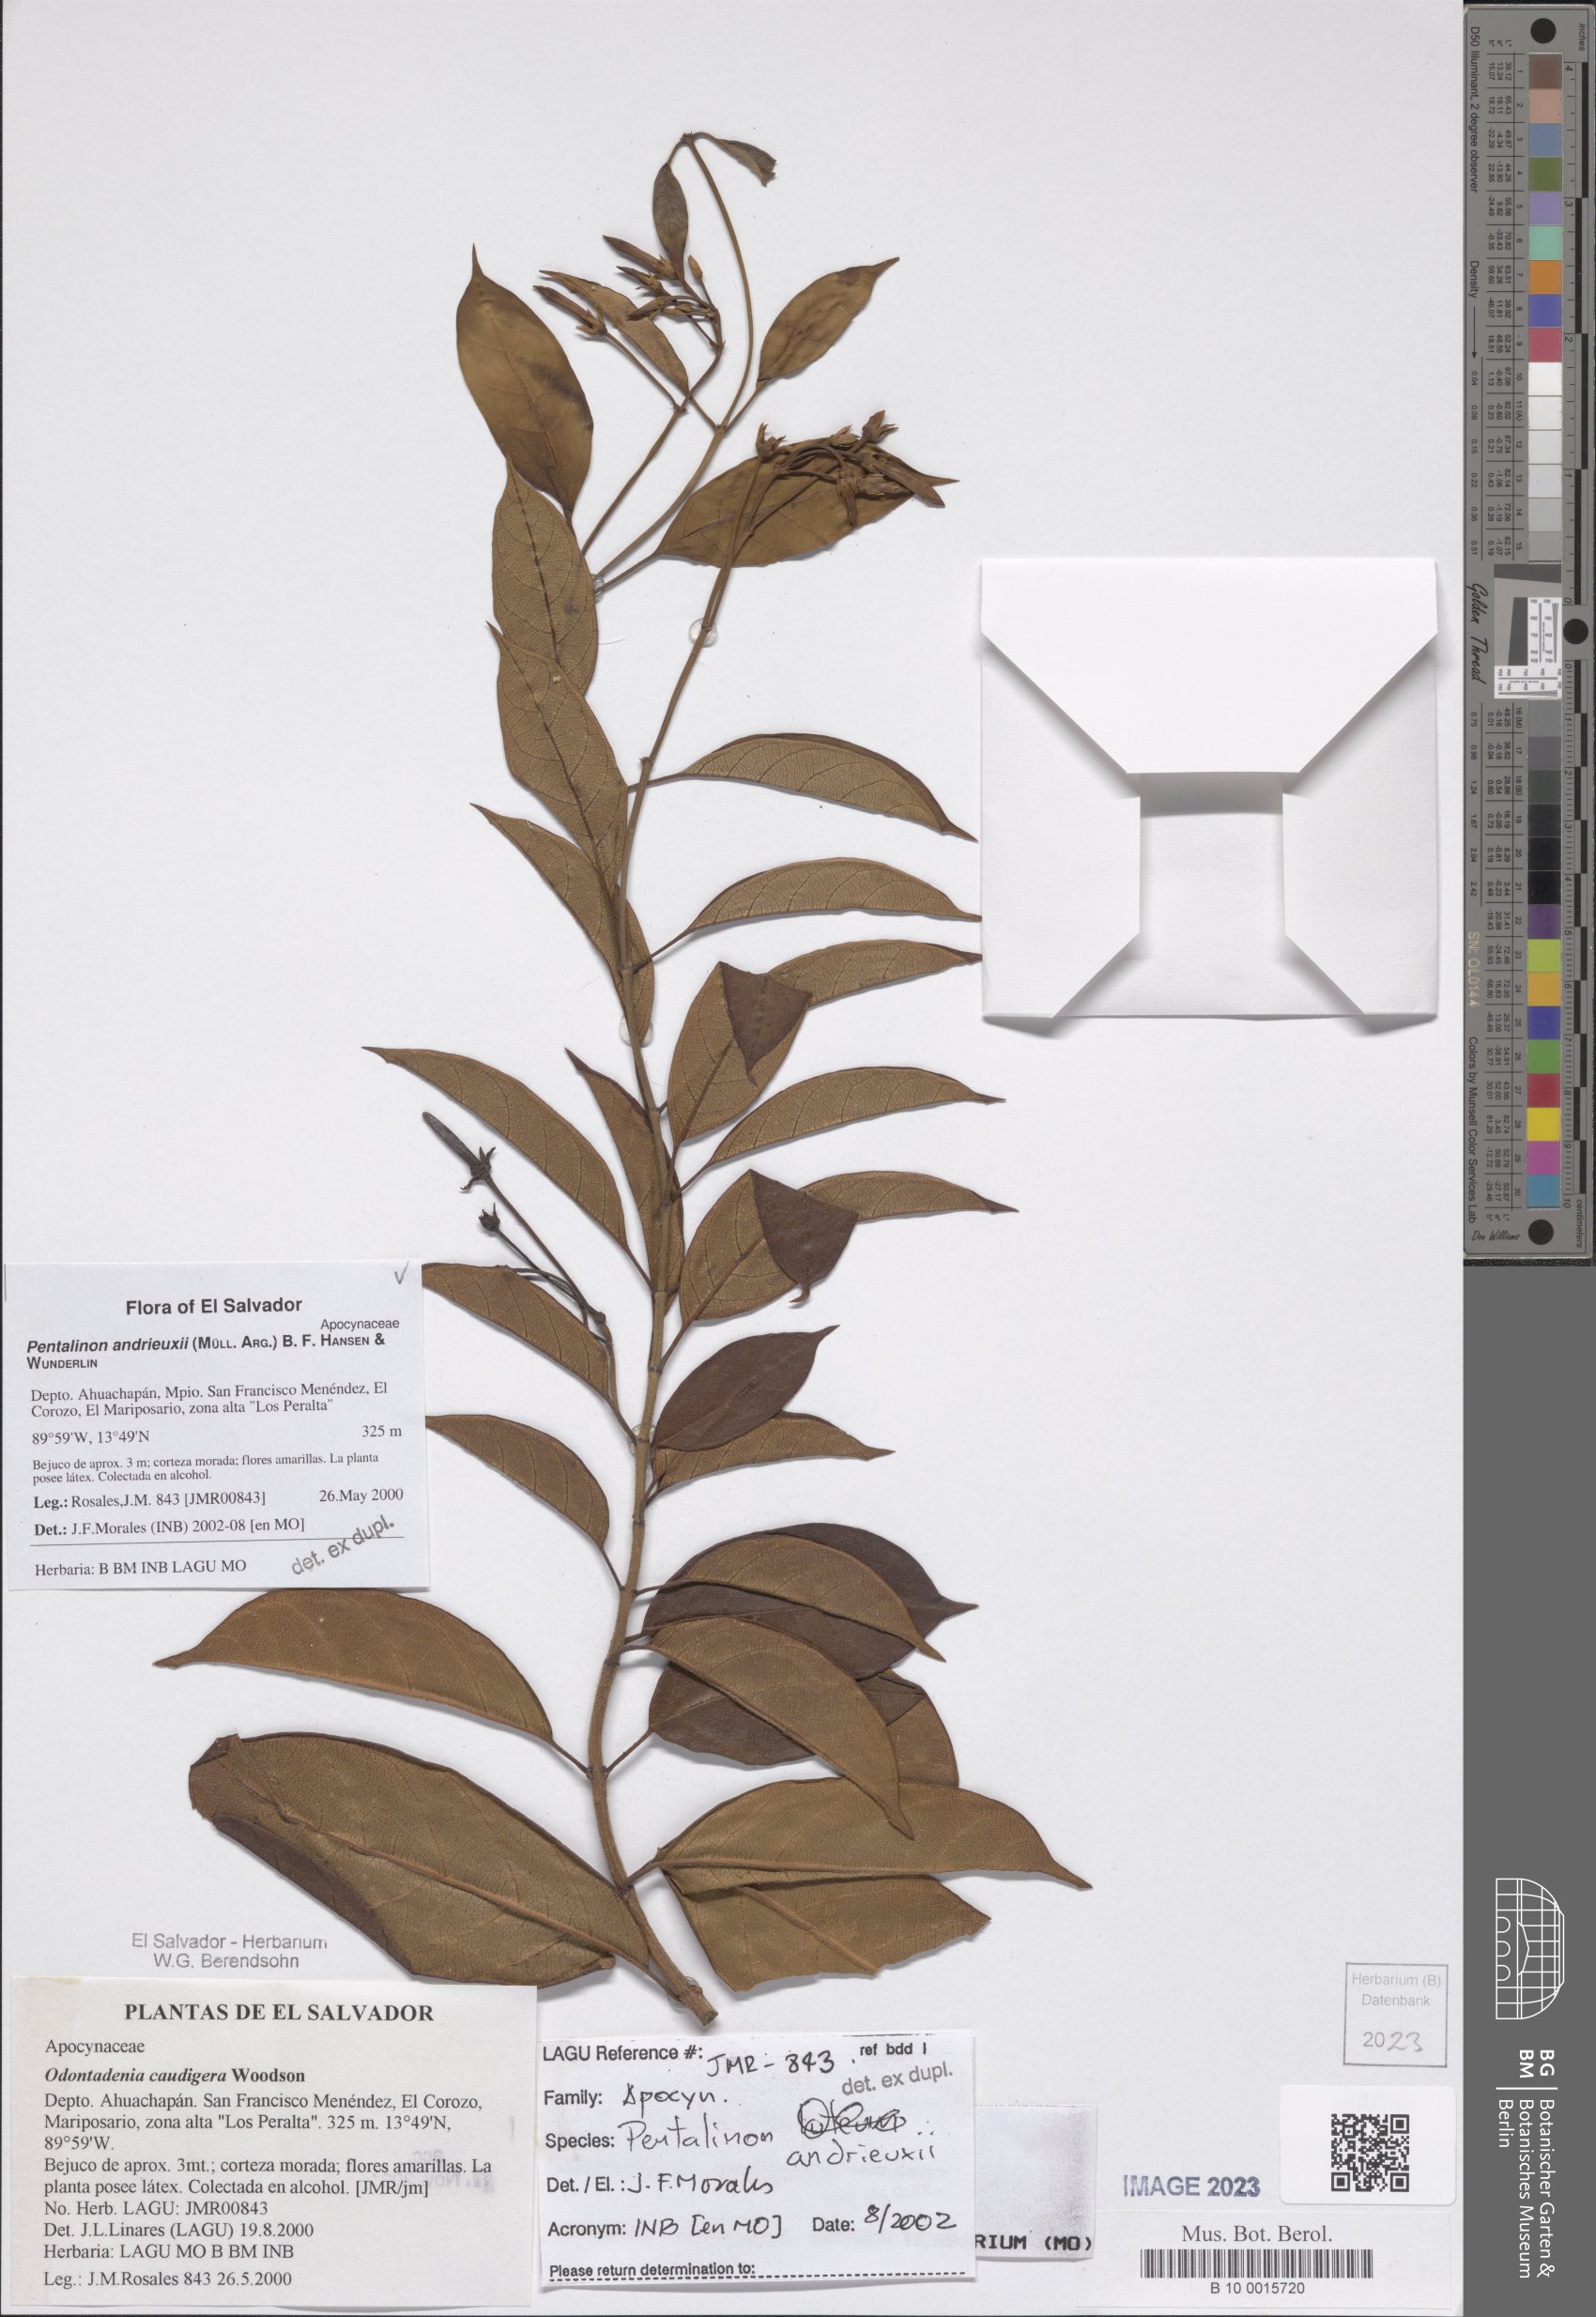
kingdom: Plantae
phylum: Tracheophyta
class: Magnoliopsida
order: Gentianales
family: Apocynaceae
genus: Pentalinon
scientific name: Pentalinon andrieuxii
